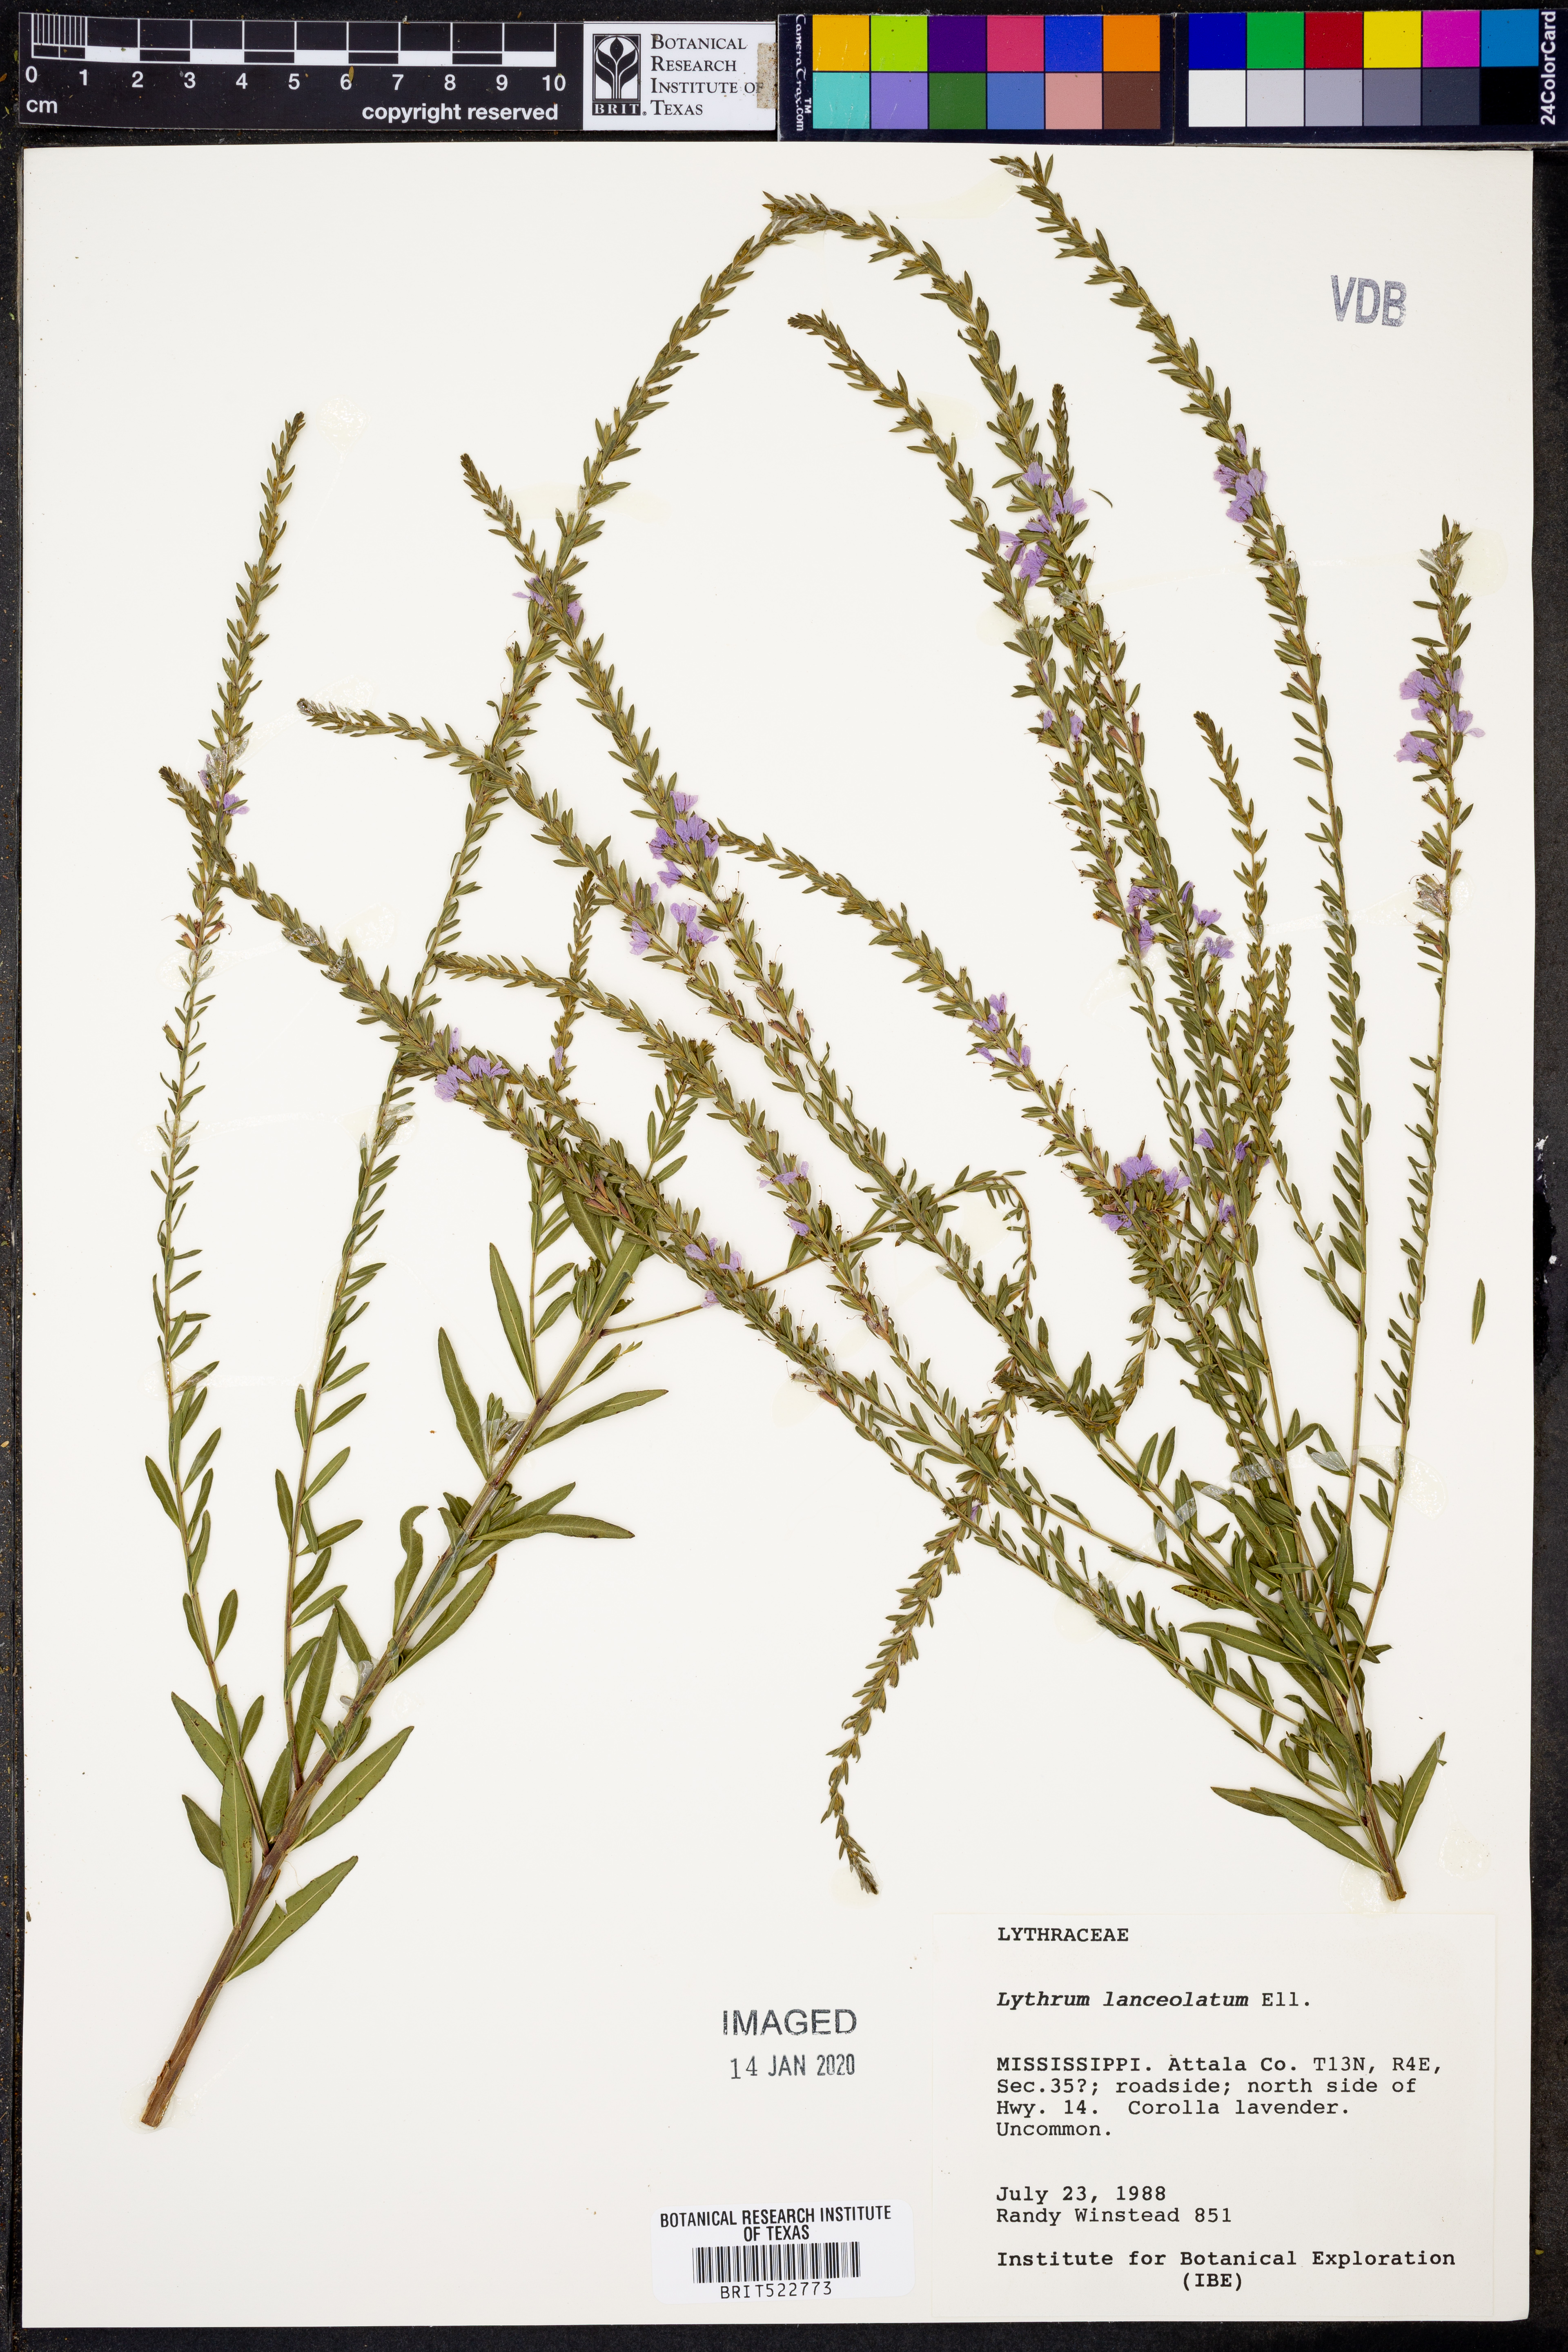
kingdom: Plantae
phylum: Tracheophyta
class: Magnoliopsida
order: Myrtales
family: Lythraceae
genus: Lythrum
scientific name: Lythrum alatum
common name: Winged loosestrife
